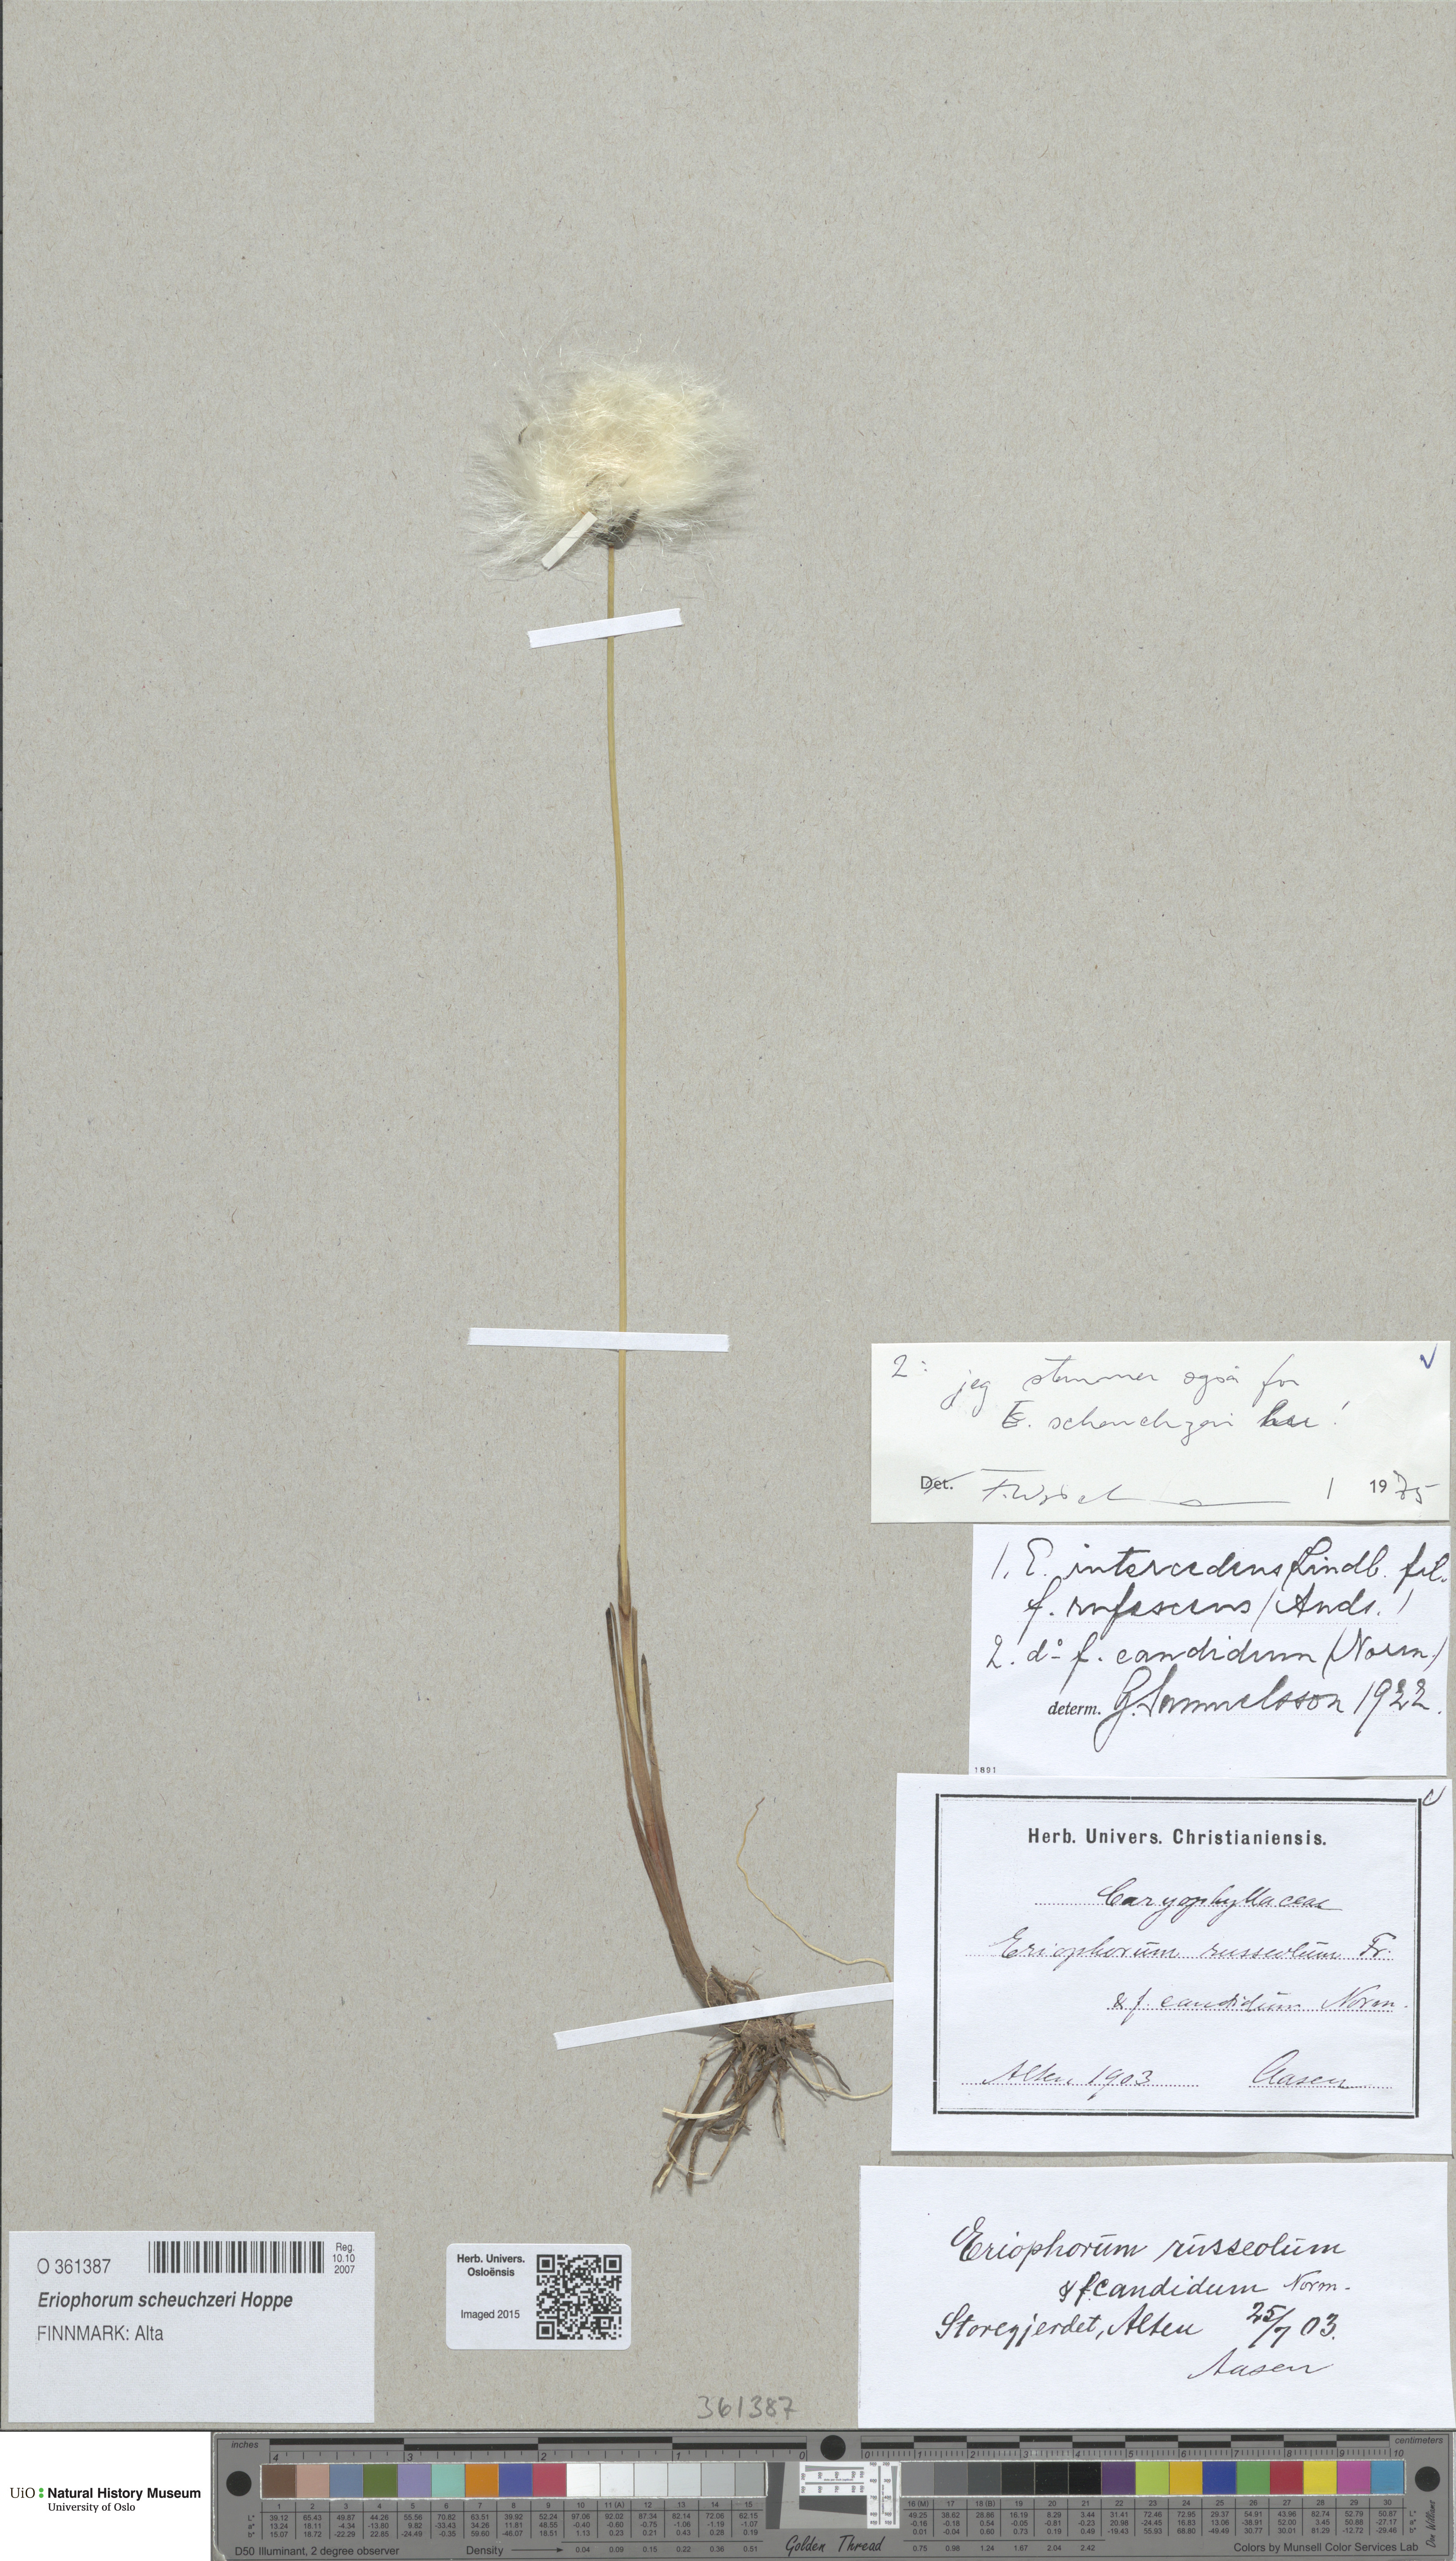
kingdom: Plantae
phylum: Tracheophyta
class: Liliopsida
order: Poales
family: Cyperaceae
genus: Eriophorum
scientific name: Eriophorum scheuchzeri
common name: Scheuchzer's cottongrass
